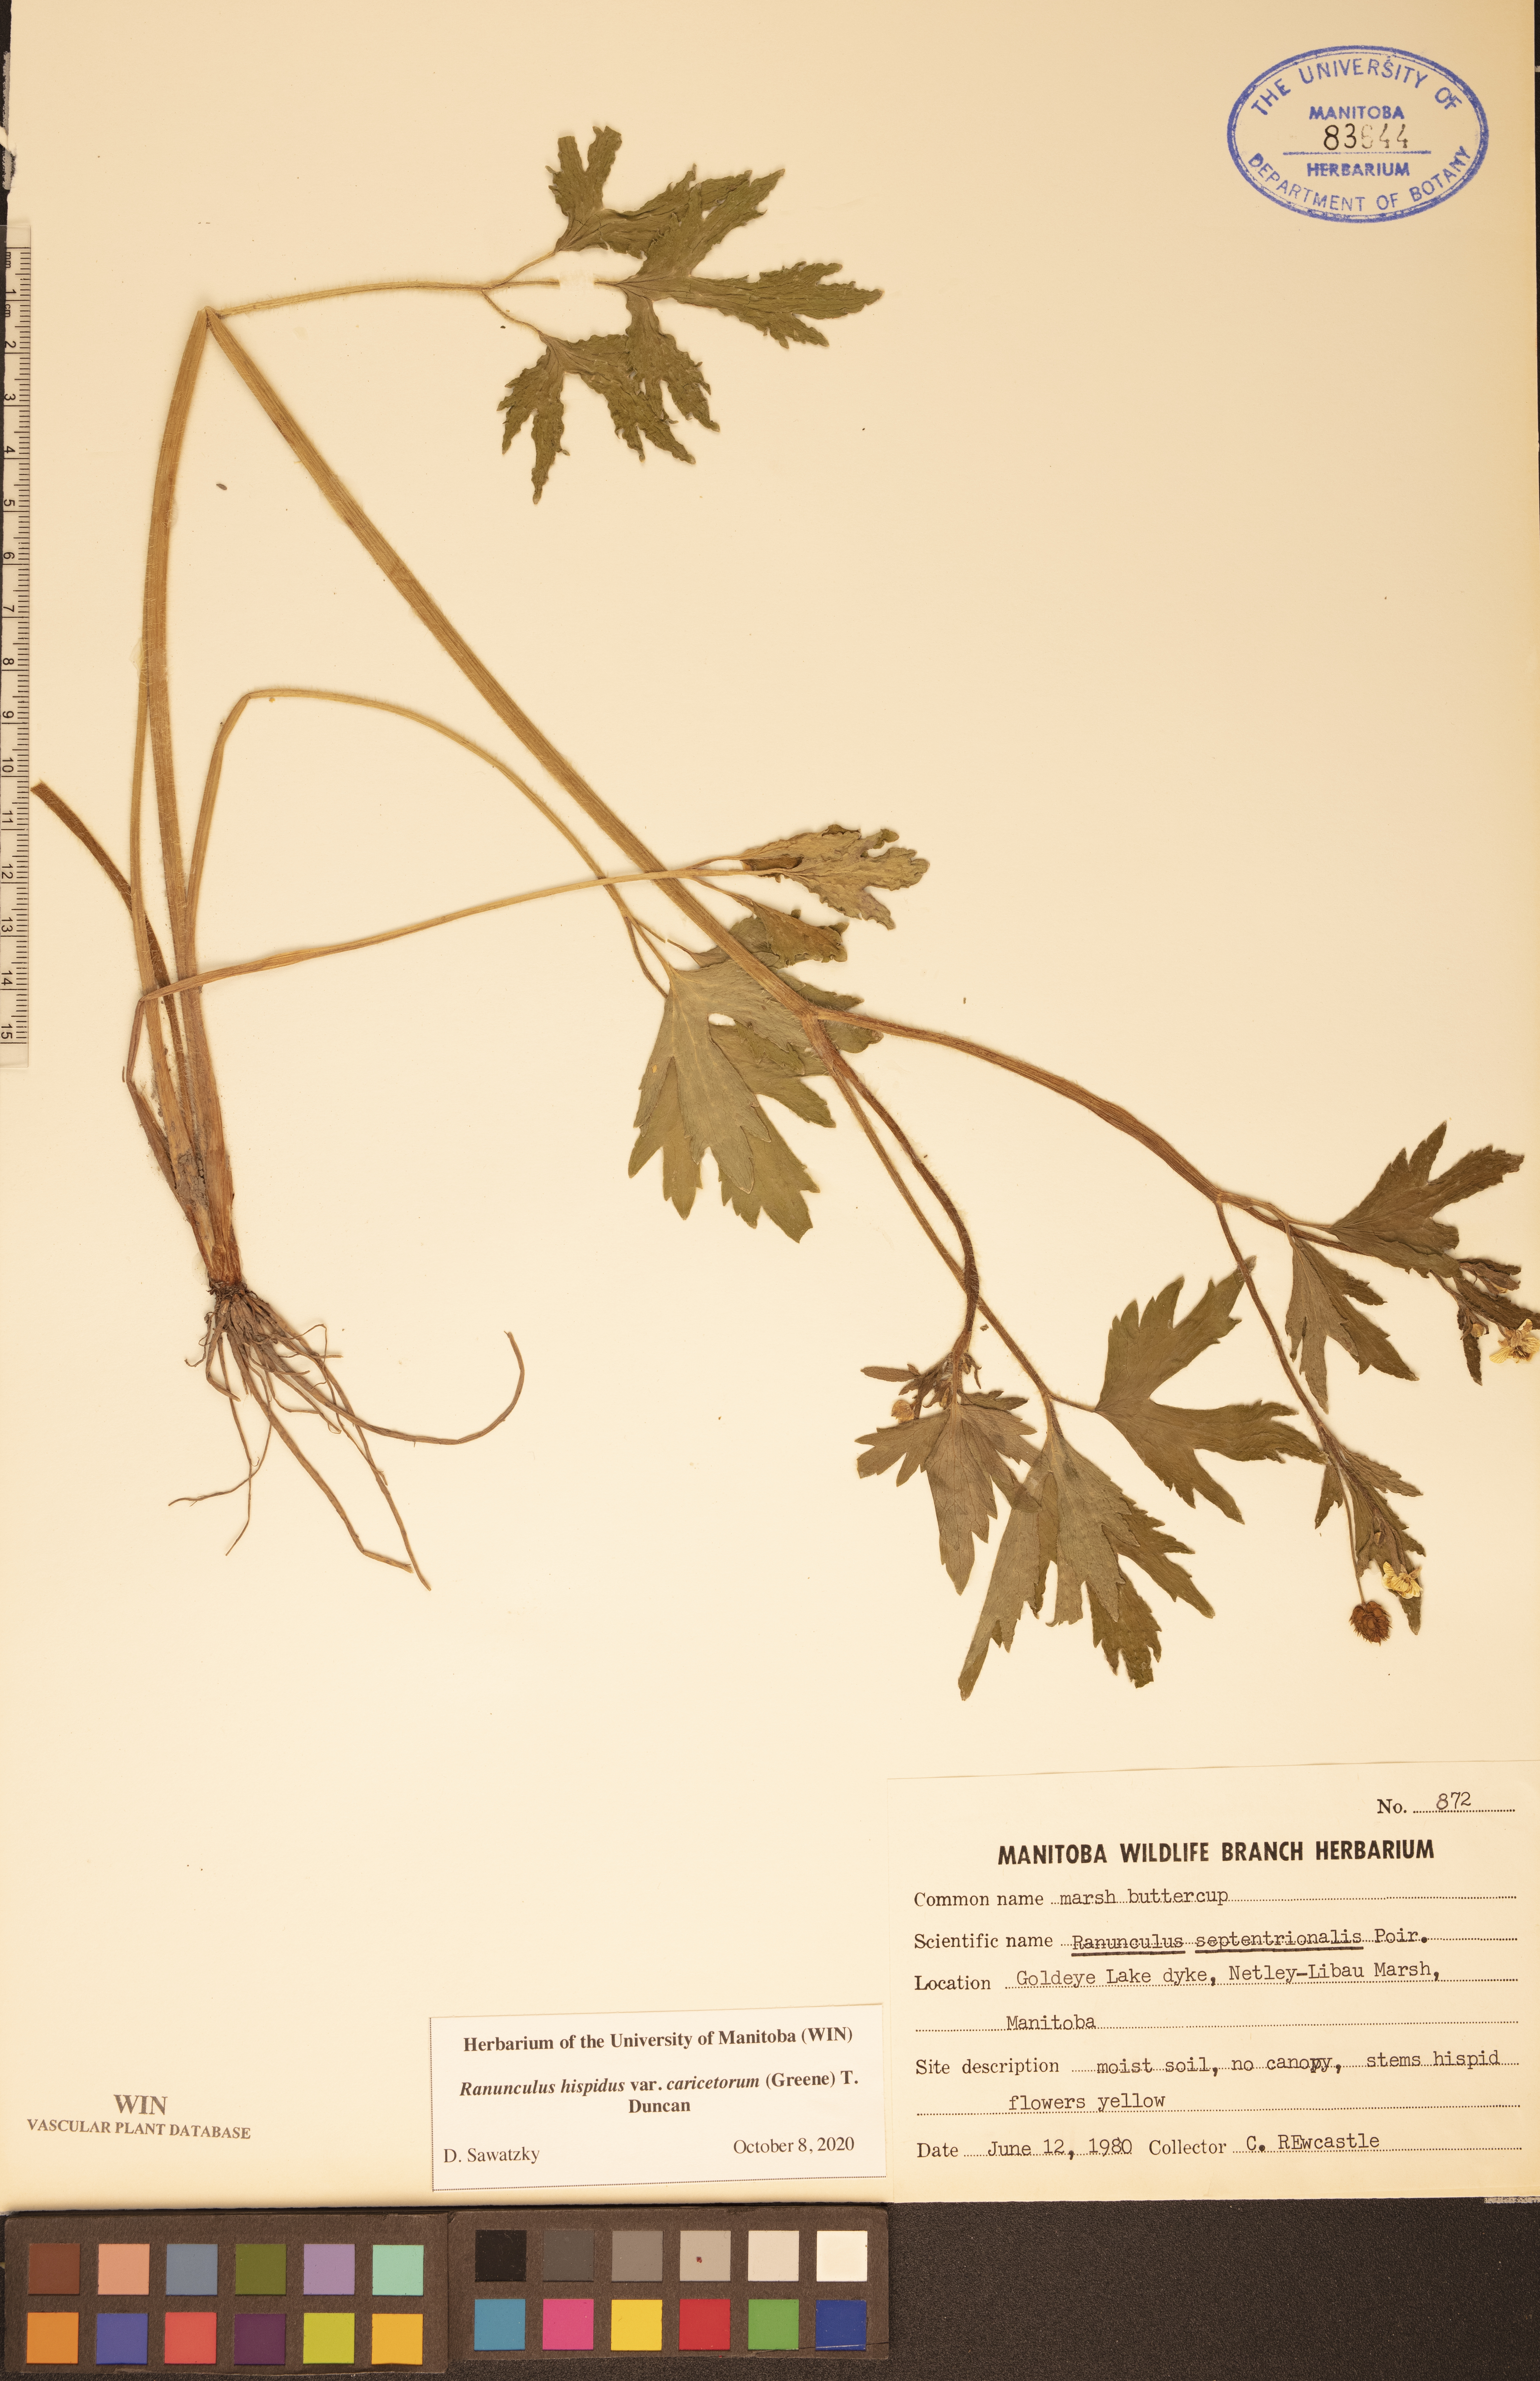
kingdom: Plantae
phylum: Tracheophyta
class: Magnoliopsida
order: Ranunculales
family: Ranunculaceae
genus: Ranunculus
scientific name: Ranunculus hispidus
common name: Bristly buttercup
